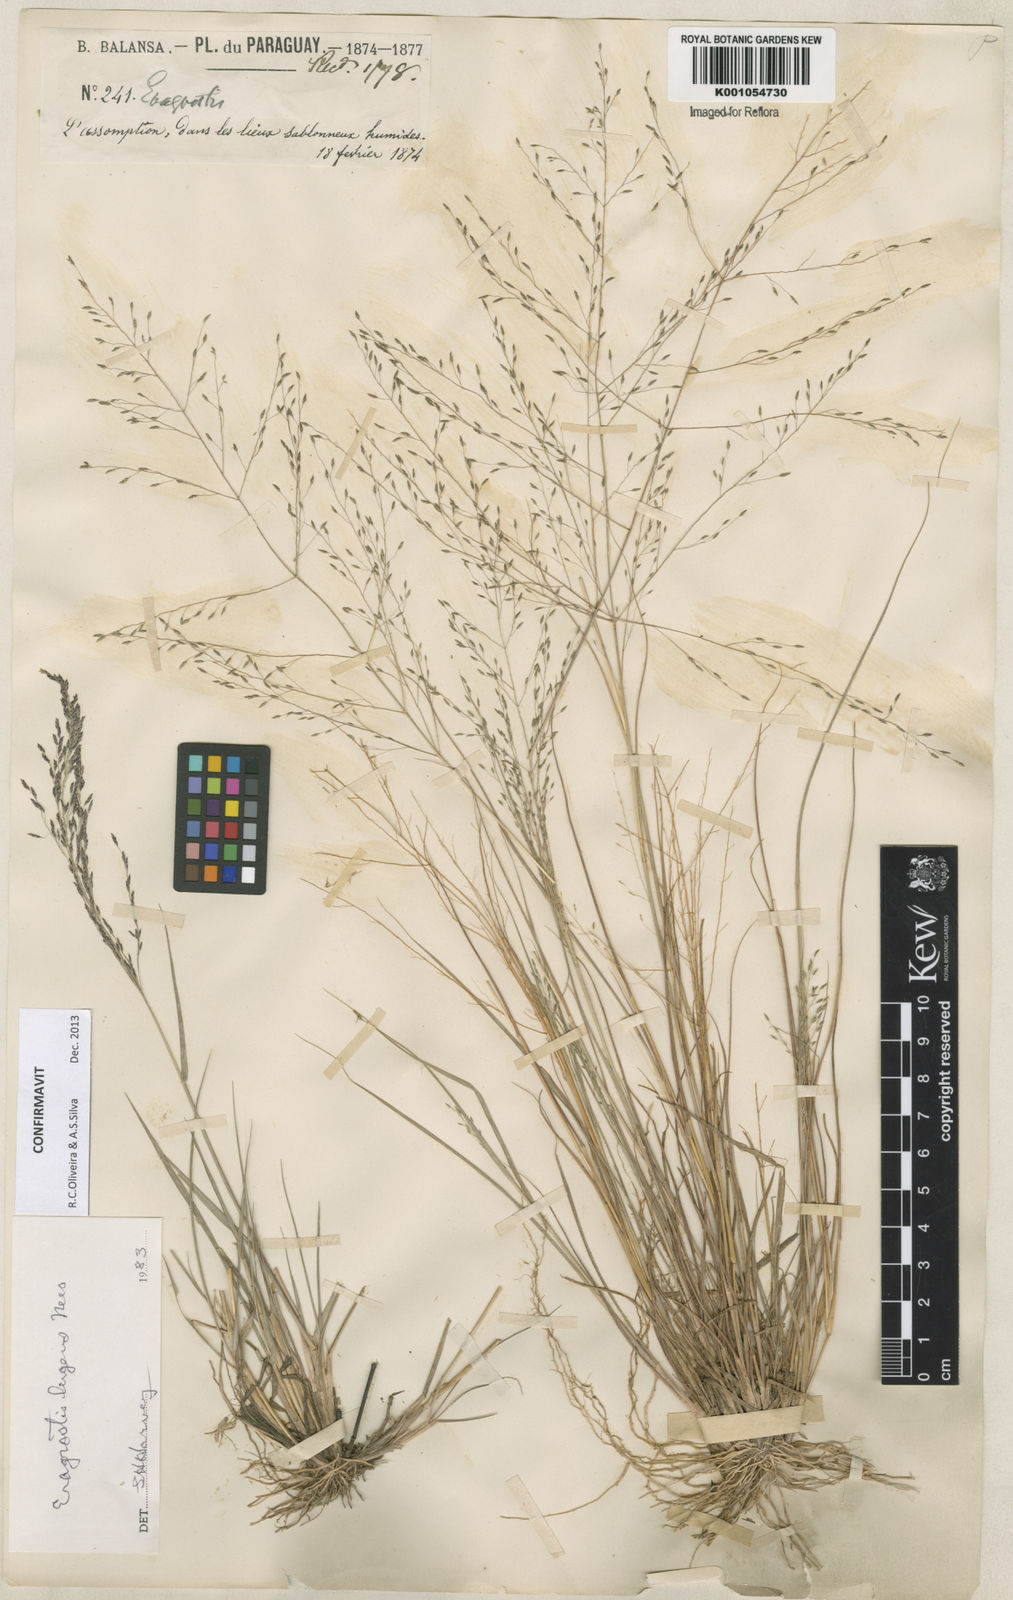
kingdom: Plantae
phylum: Tracheophyta
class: Liliopsida
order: Poales
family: Poaceae
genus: Eragrostis
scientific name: Eragrostis lugens
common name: Mourning love grass
